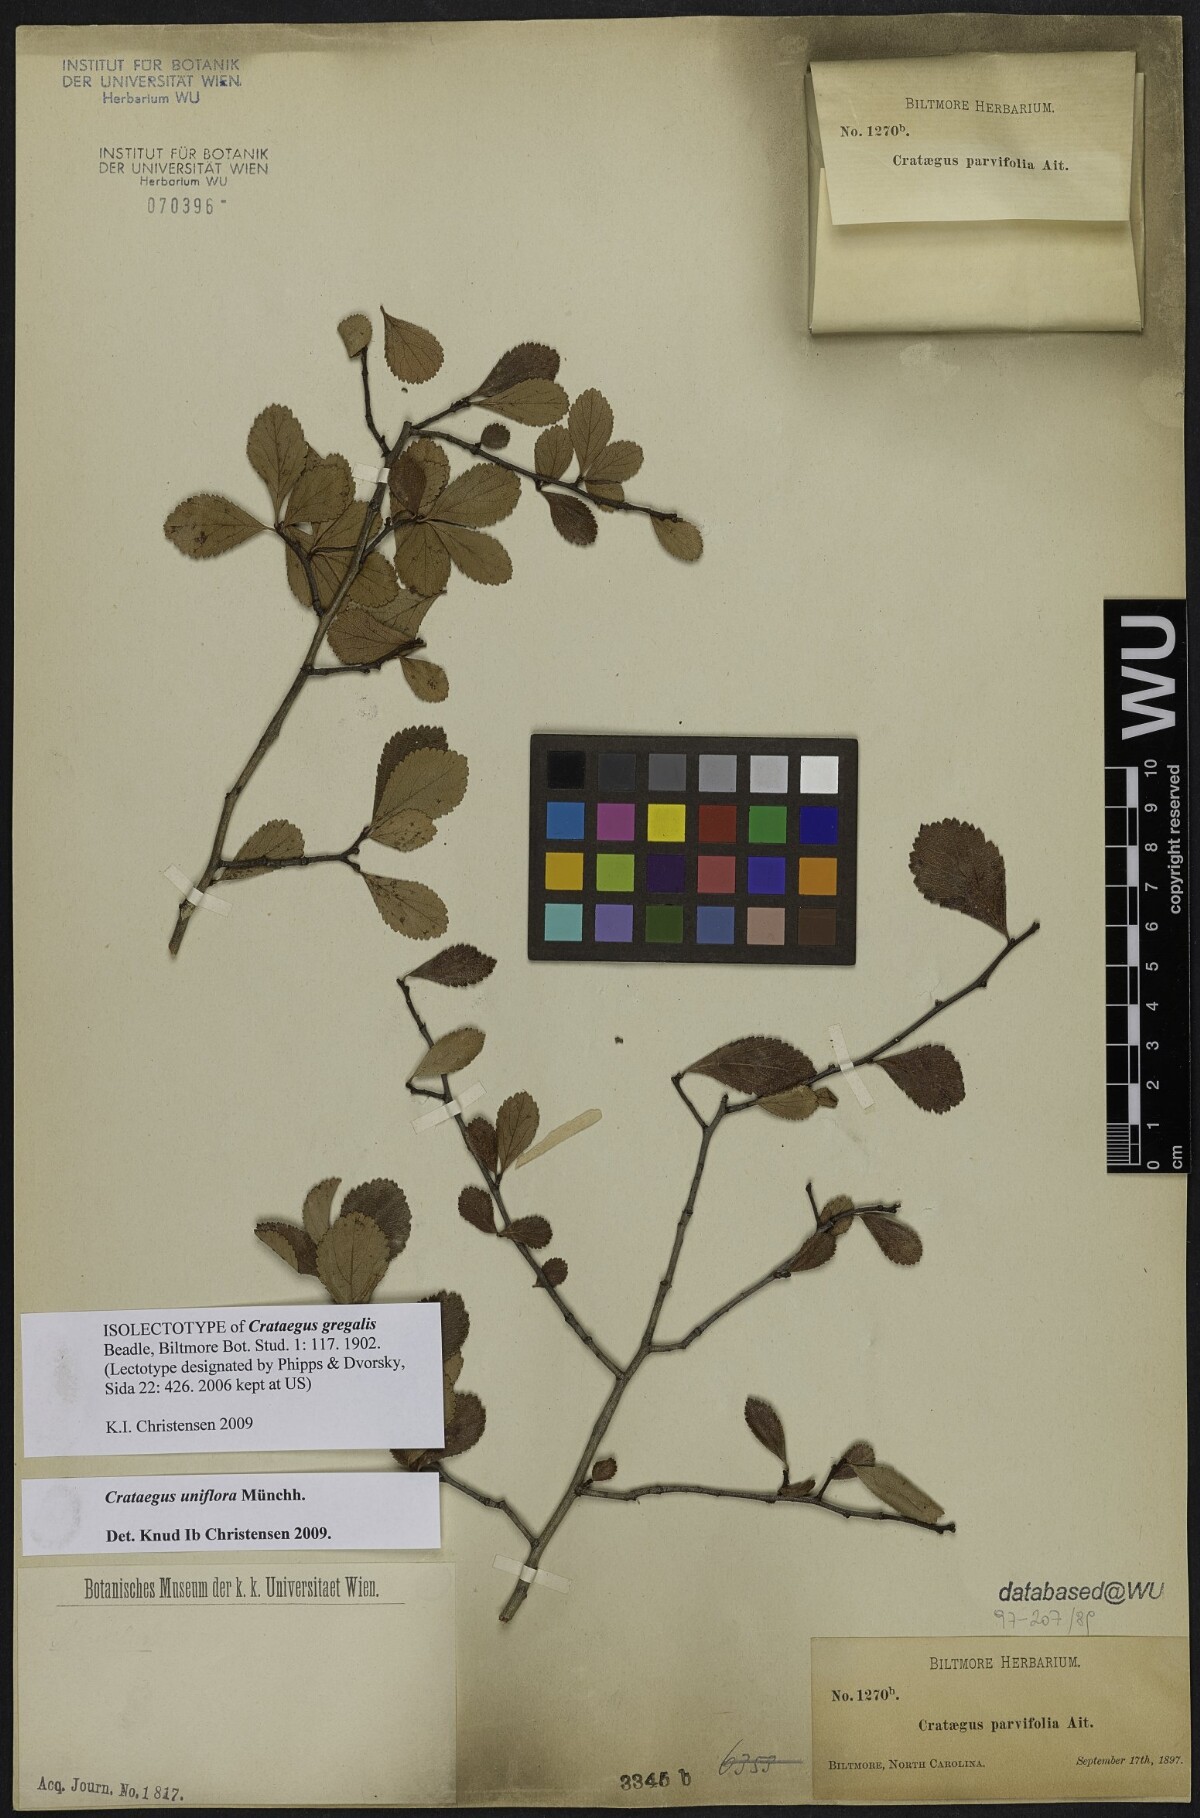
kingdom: Plantae
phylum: Tracheophyta
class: Magnoliopsida
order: Rosales
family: Rosaceae
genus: Crataegus
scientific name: Crataegus uniflora
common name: One-flower hawthorn
